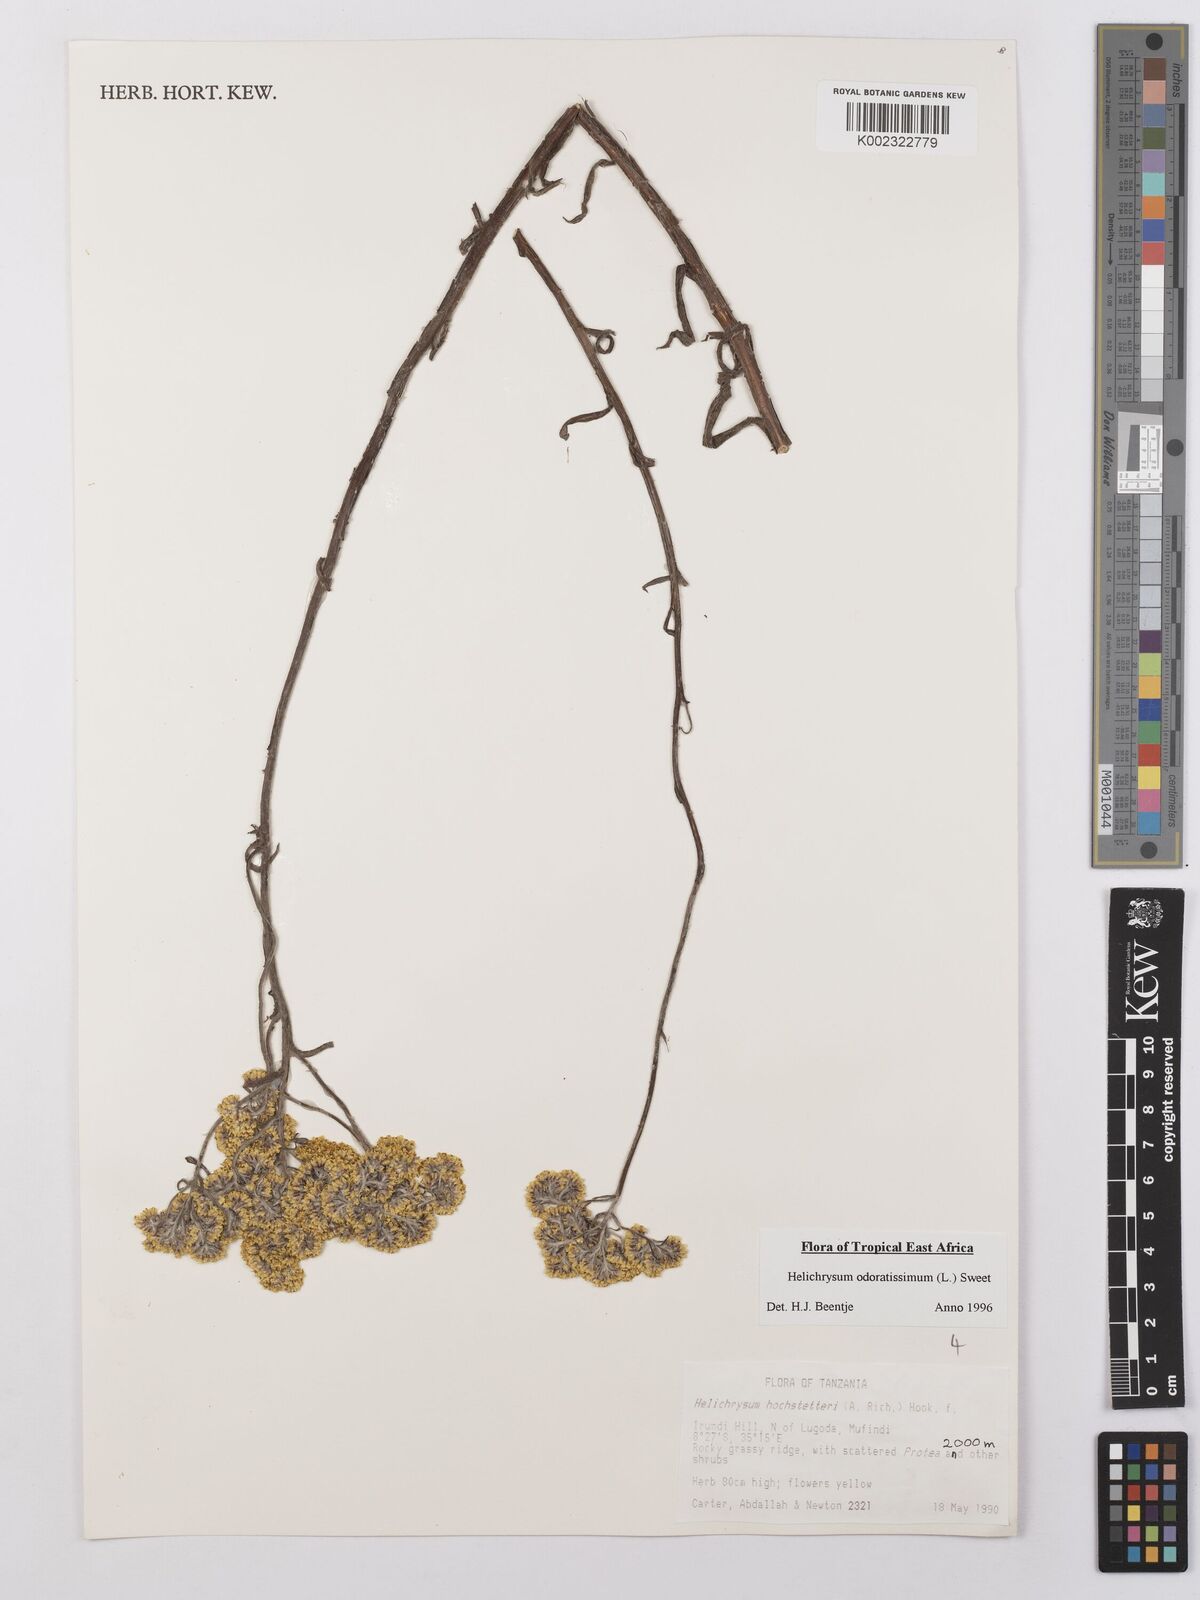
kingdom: Plantae
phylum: Tracheophyta
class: Magnoliopsida
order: Asterales
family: Asteraceae
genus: Helichrysum
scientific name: Helichrysum odoratissimum
